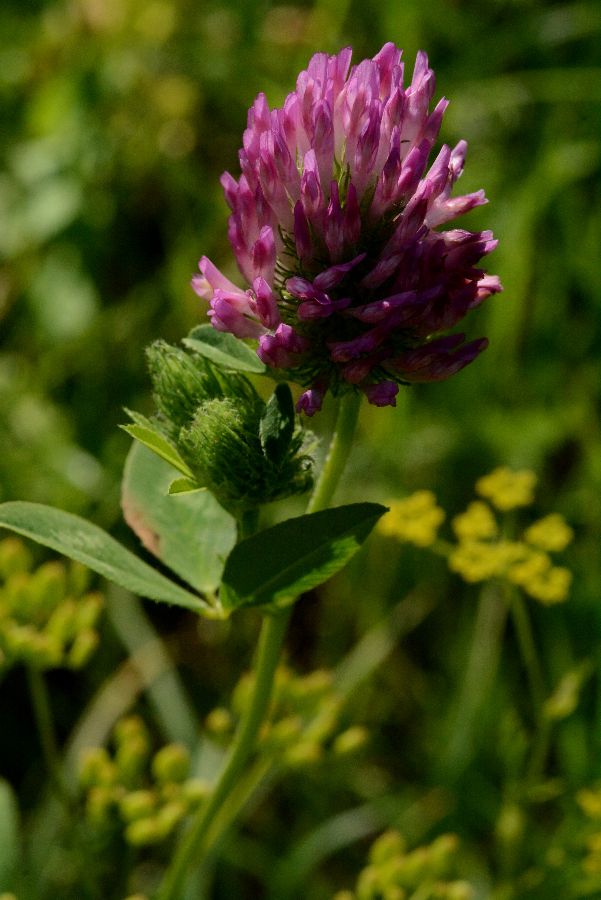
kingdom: Plantae
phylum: Tracheophyta
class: Magnoliopsida
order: Fabales
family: Fabaceae
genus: Trifolium
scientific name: Trifolium pratense
